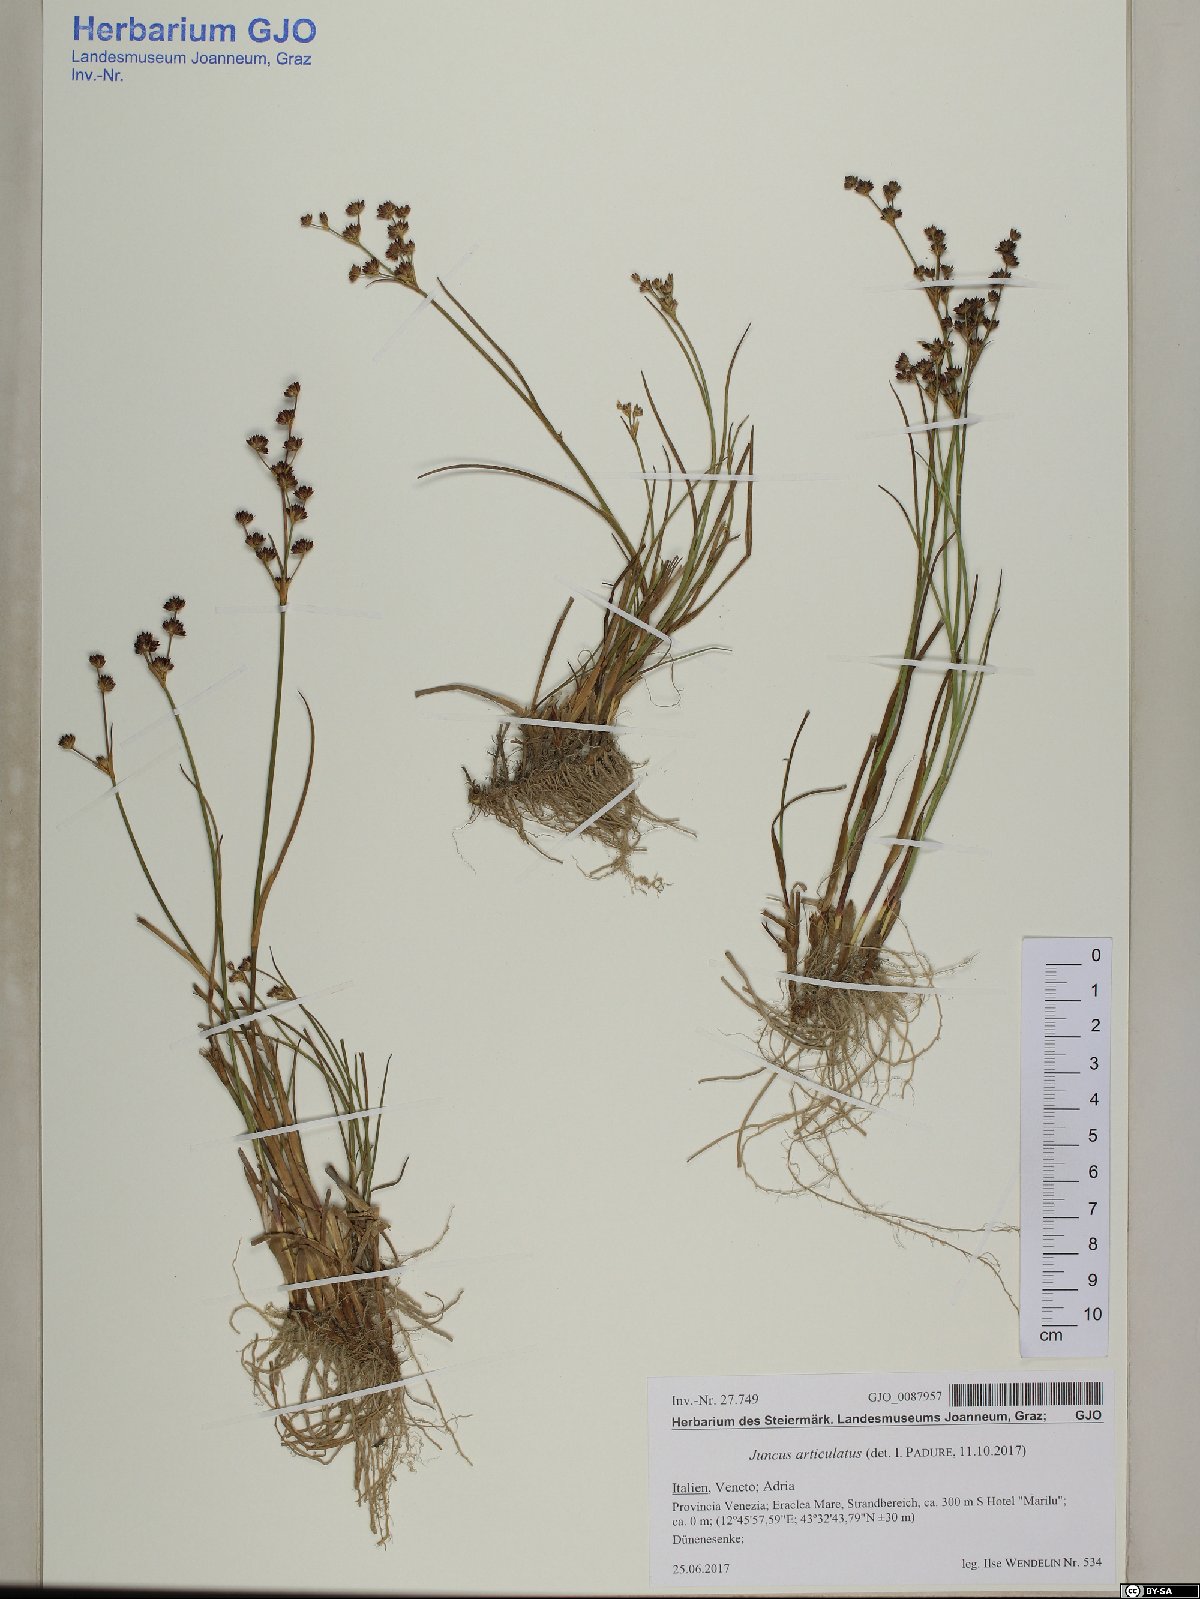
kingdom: Plantae
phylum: Tracheophyta
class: Liliopsida
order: Poales
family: Juncaceae
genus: Juncus
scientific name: Juncus articulatus
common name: Jointed rush
